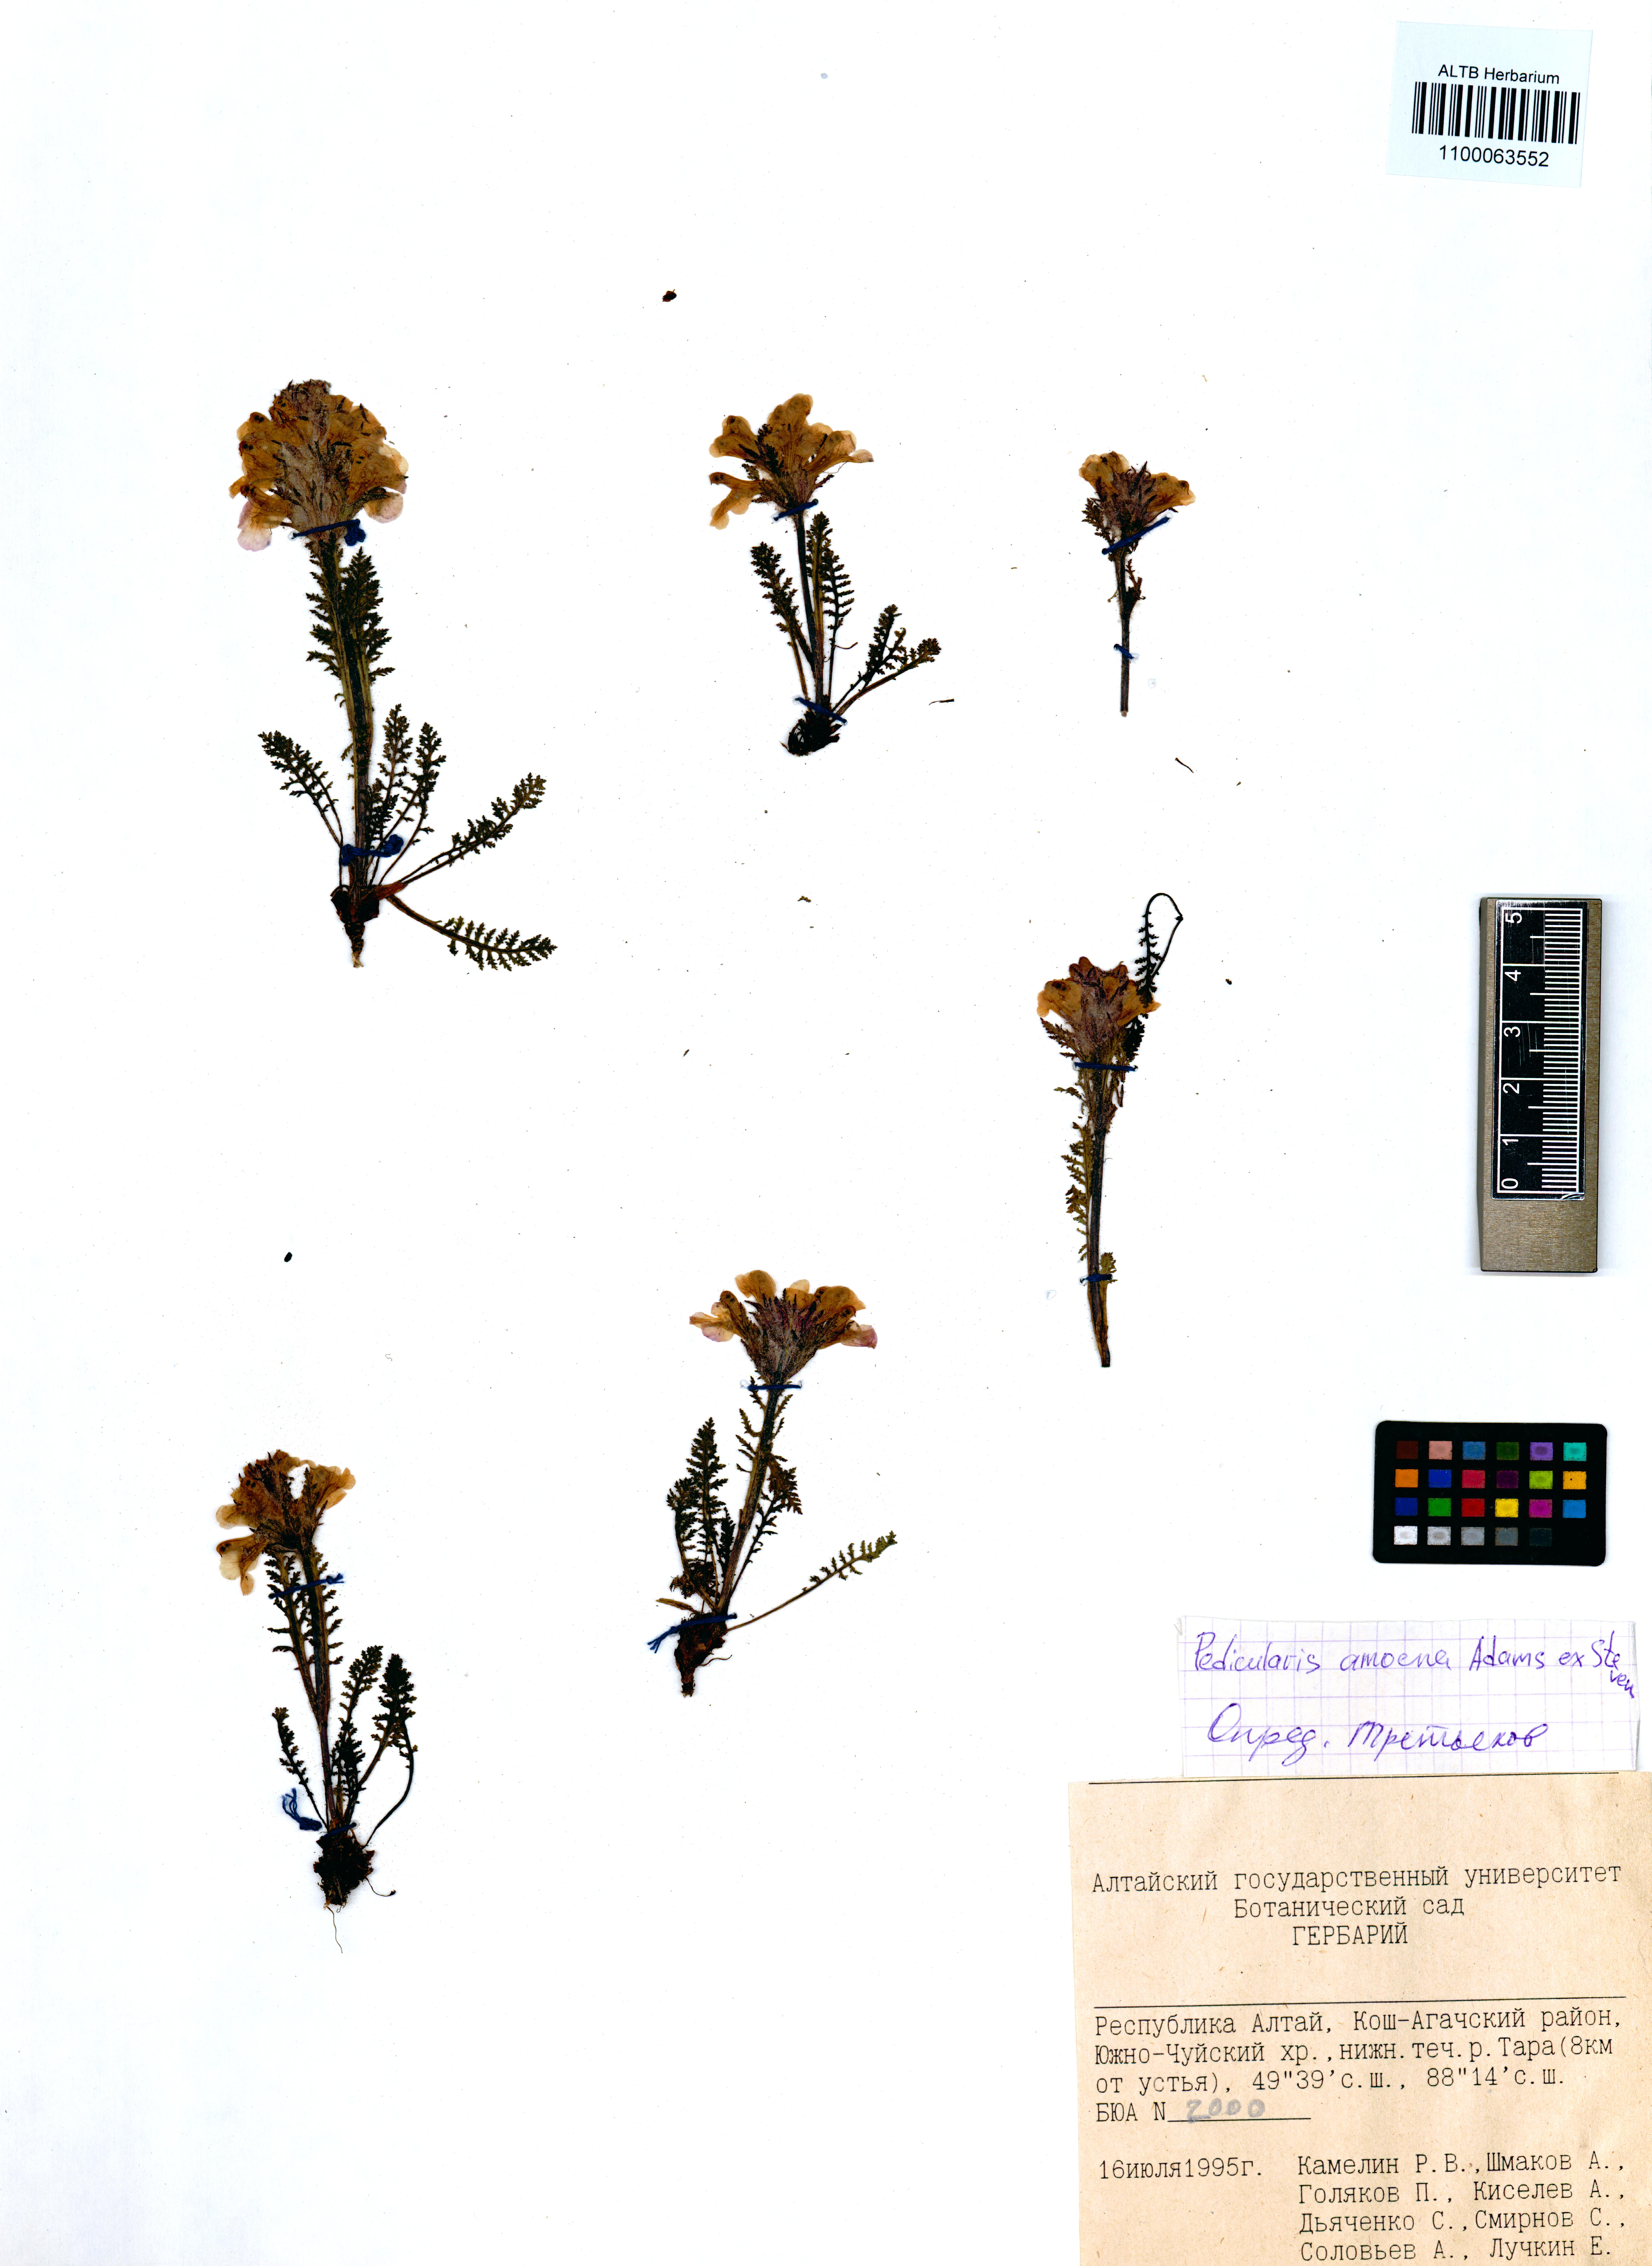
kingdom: Plantae
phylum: Tracheophyta
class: Magnoliopsida
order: Lamiales
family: Orobanchaceae
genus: Pedicularis
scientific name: Pedicularis amoena
